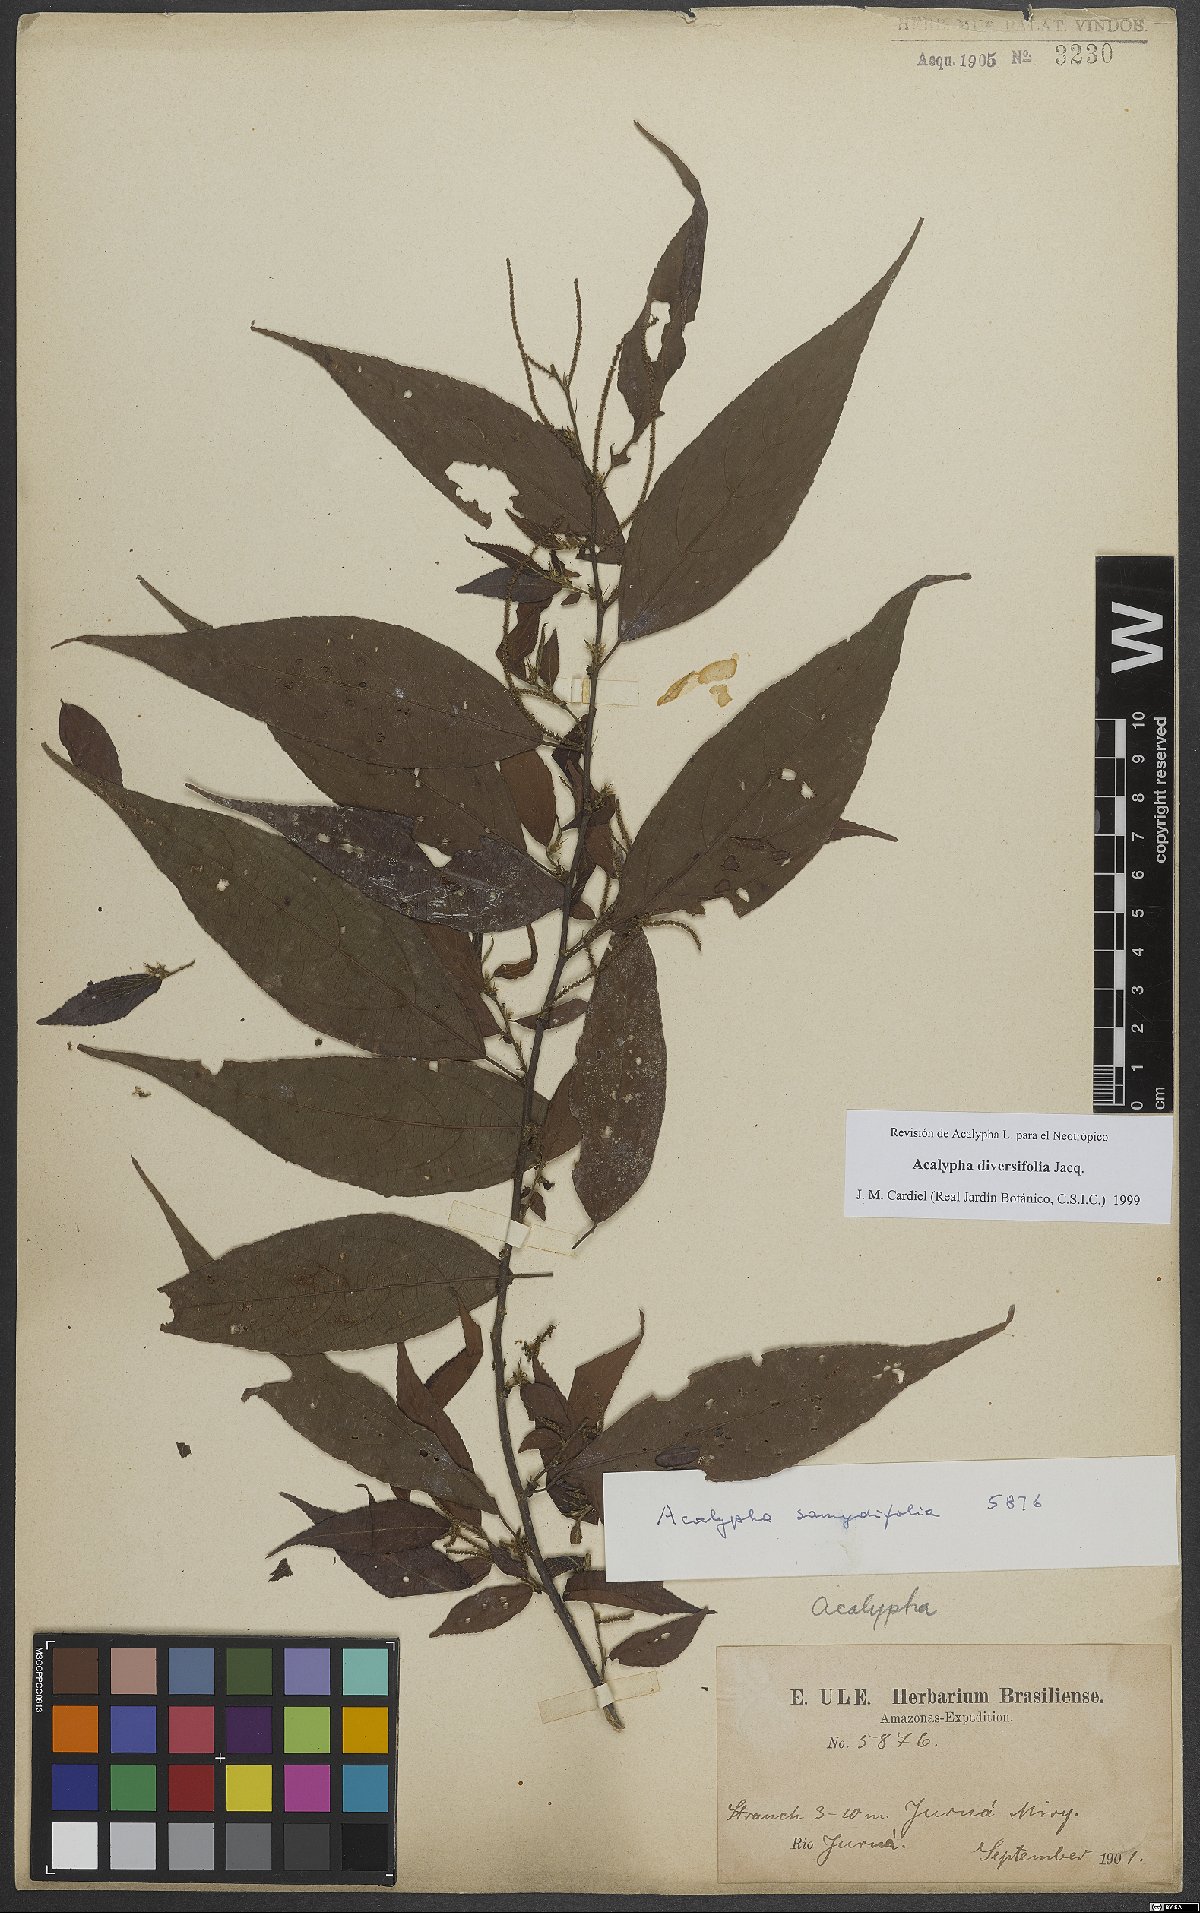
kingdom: Plantae
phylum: Tracheophyta
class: Magnoliopsida
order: Malpighiales
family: Euphorbiaceae
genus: Acalypha
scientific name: Acalypha diversifolia
